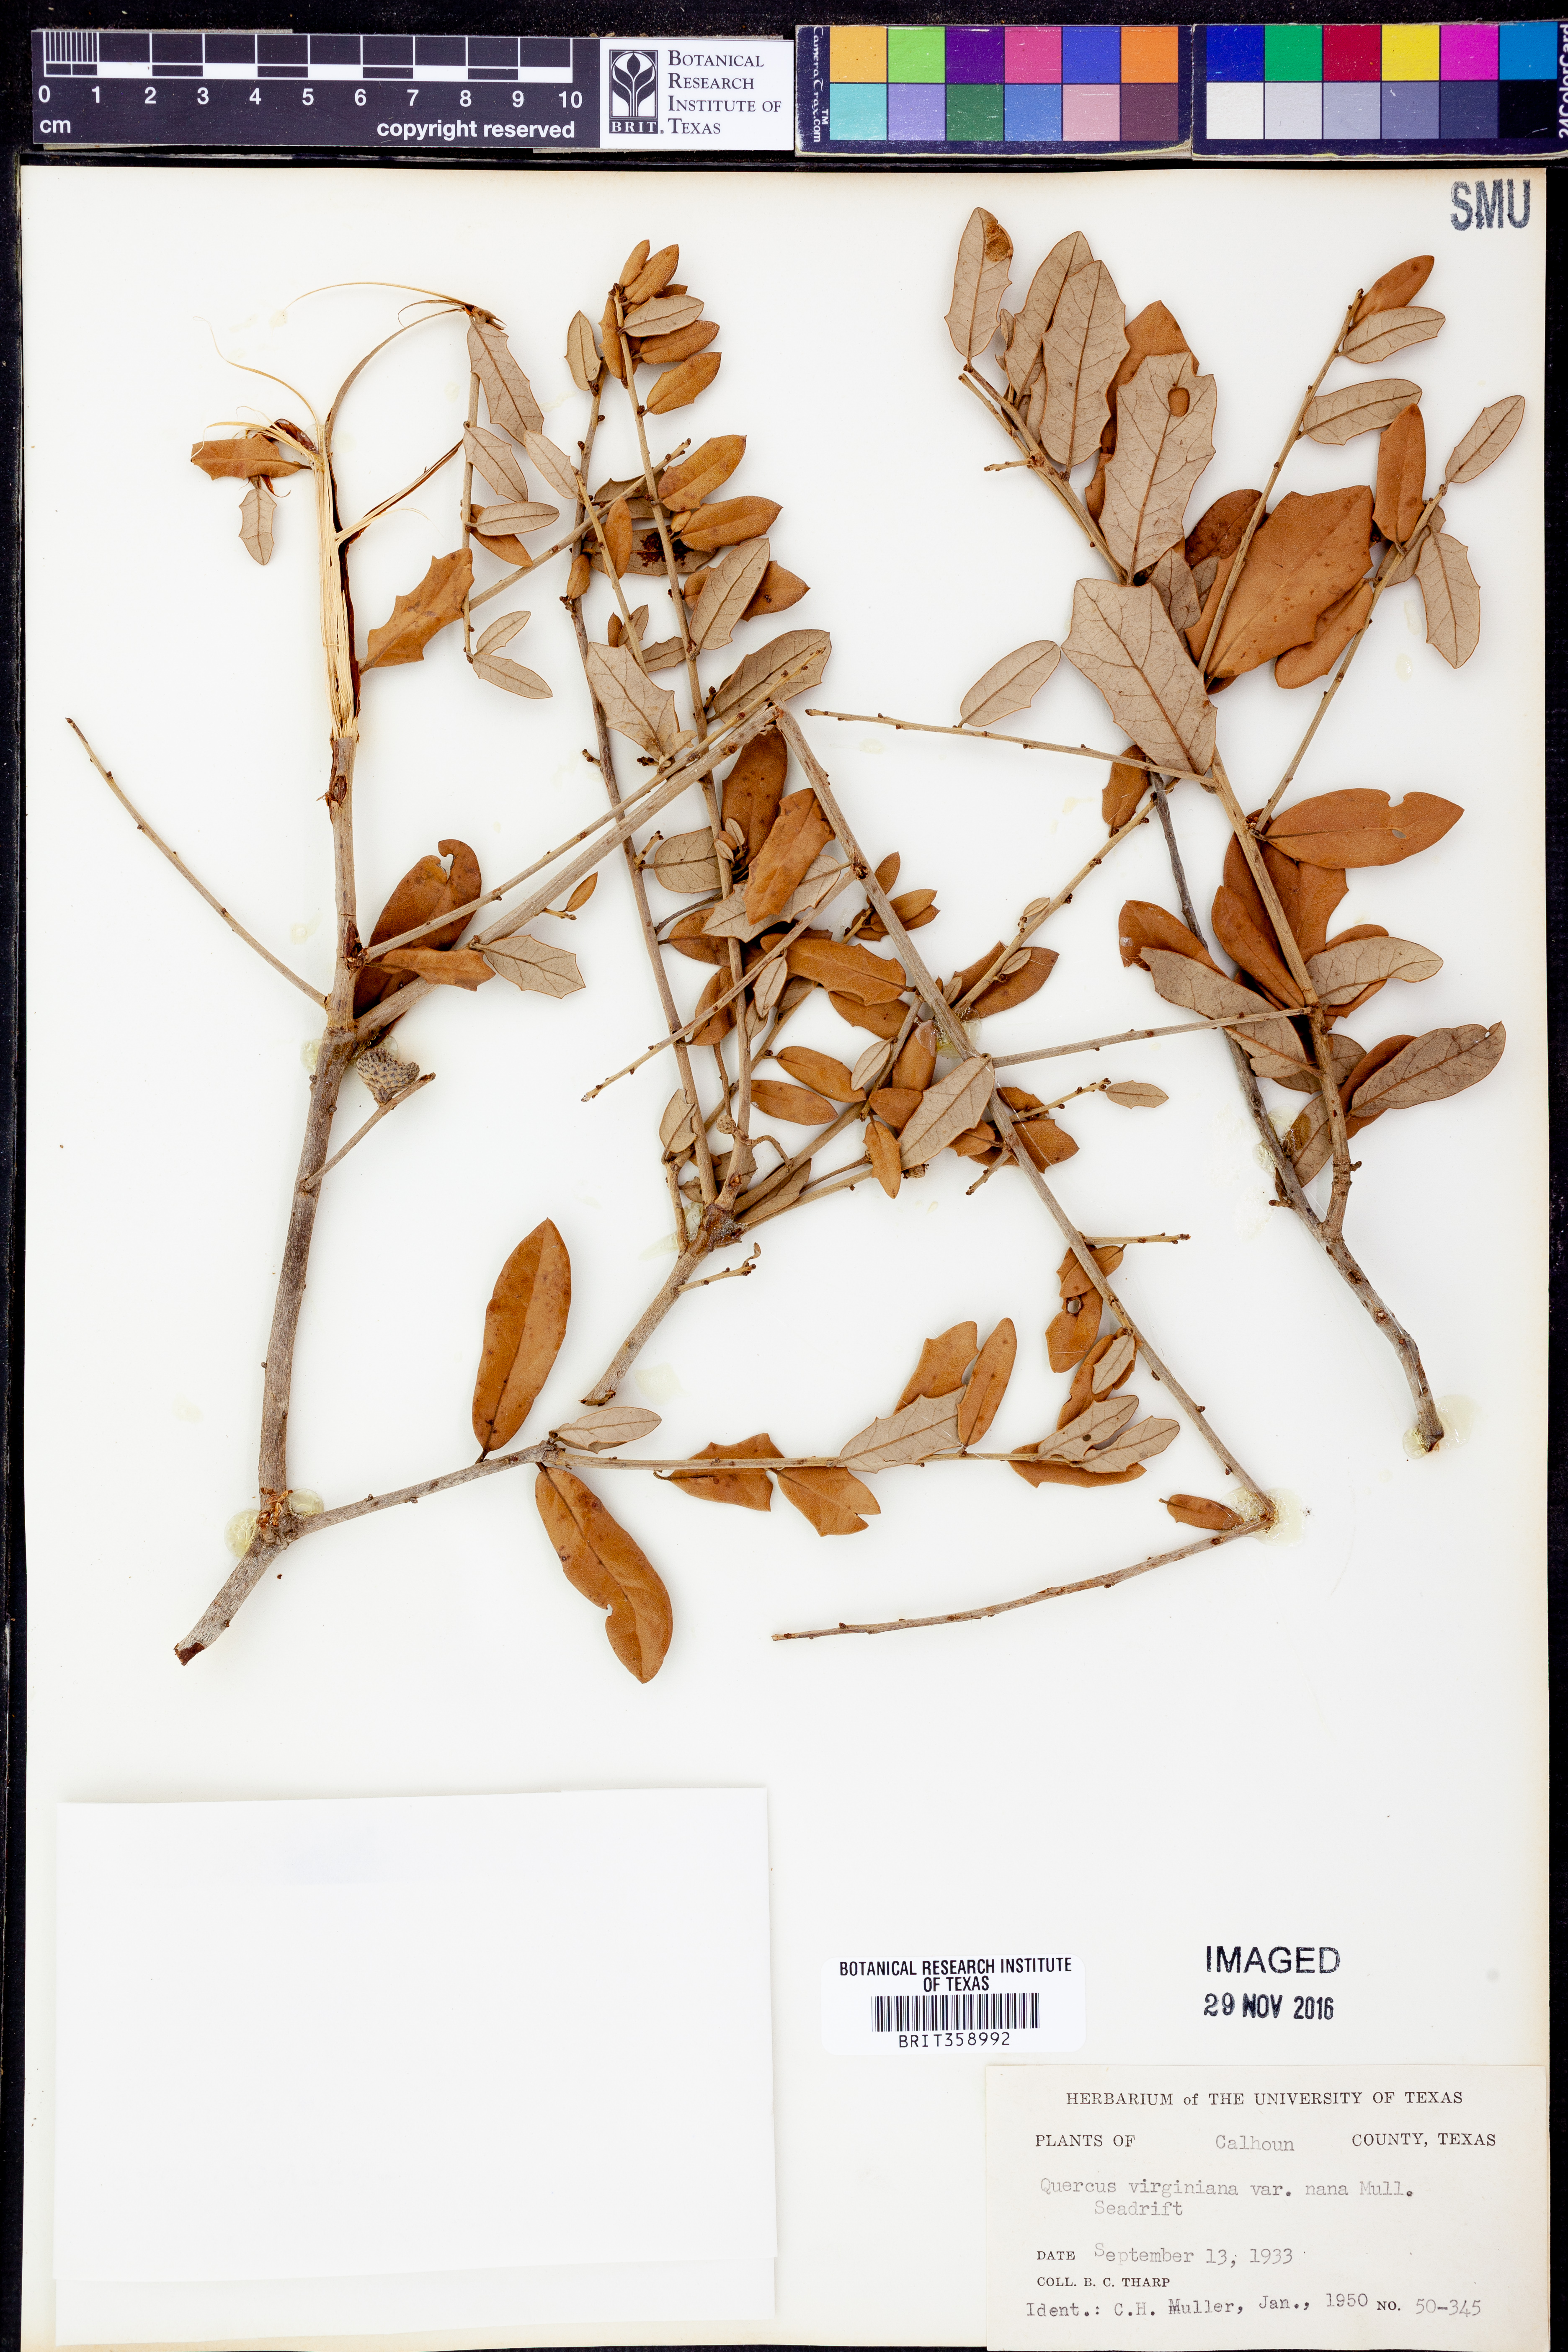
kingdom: Plantae
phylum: Tracheophyta
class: Magnoliopsida
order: Fagales
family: Fagaceae
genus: Quercus
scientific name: Quercus virginiana
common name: Southern live oak
